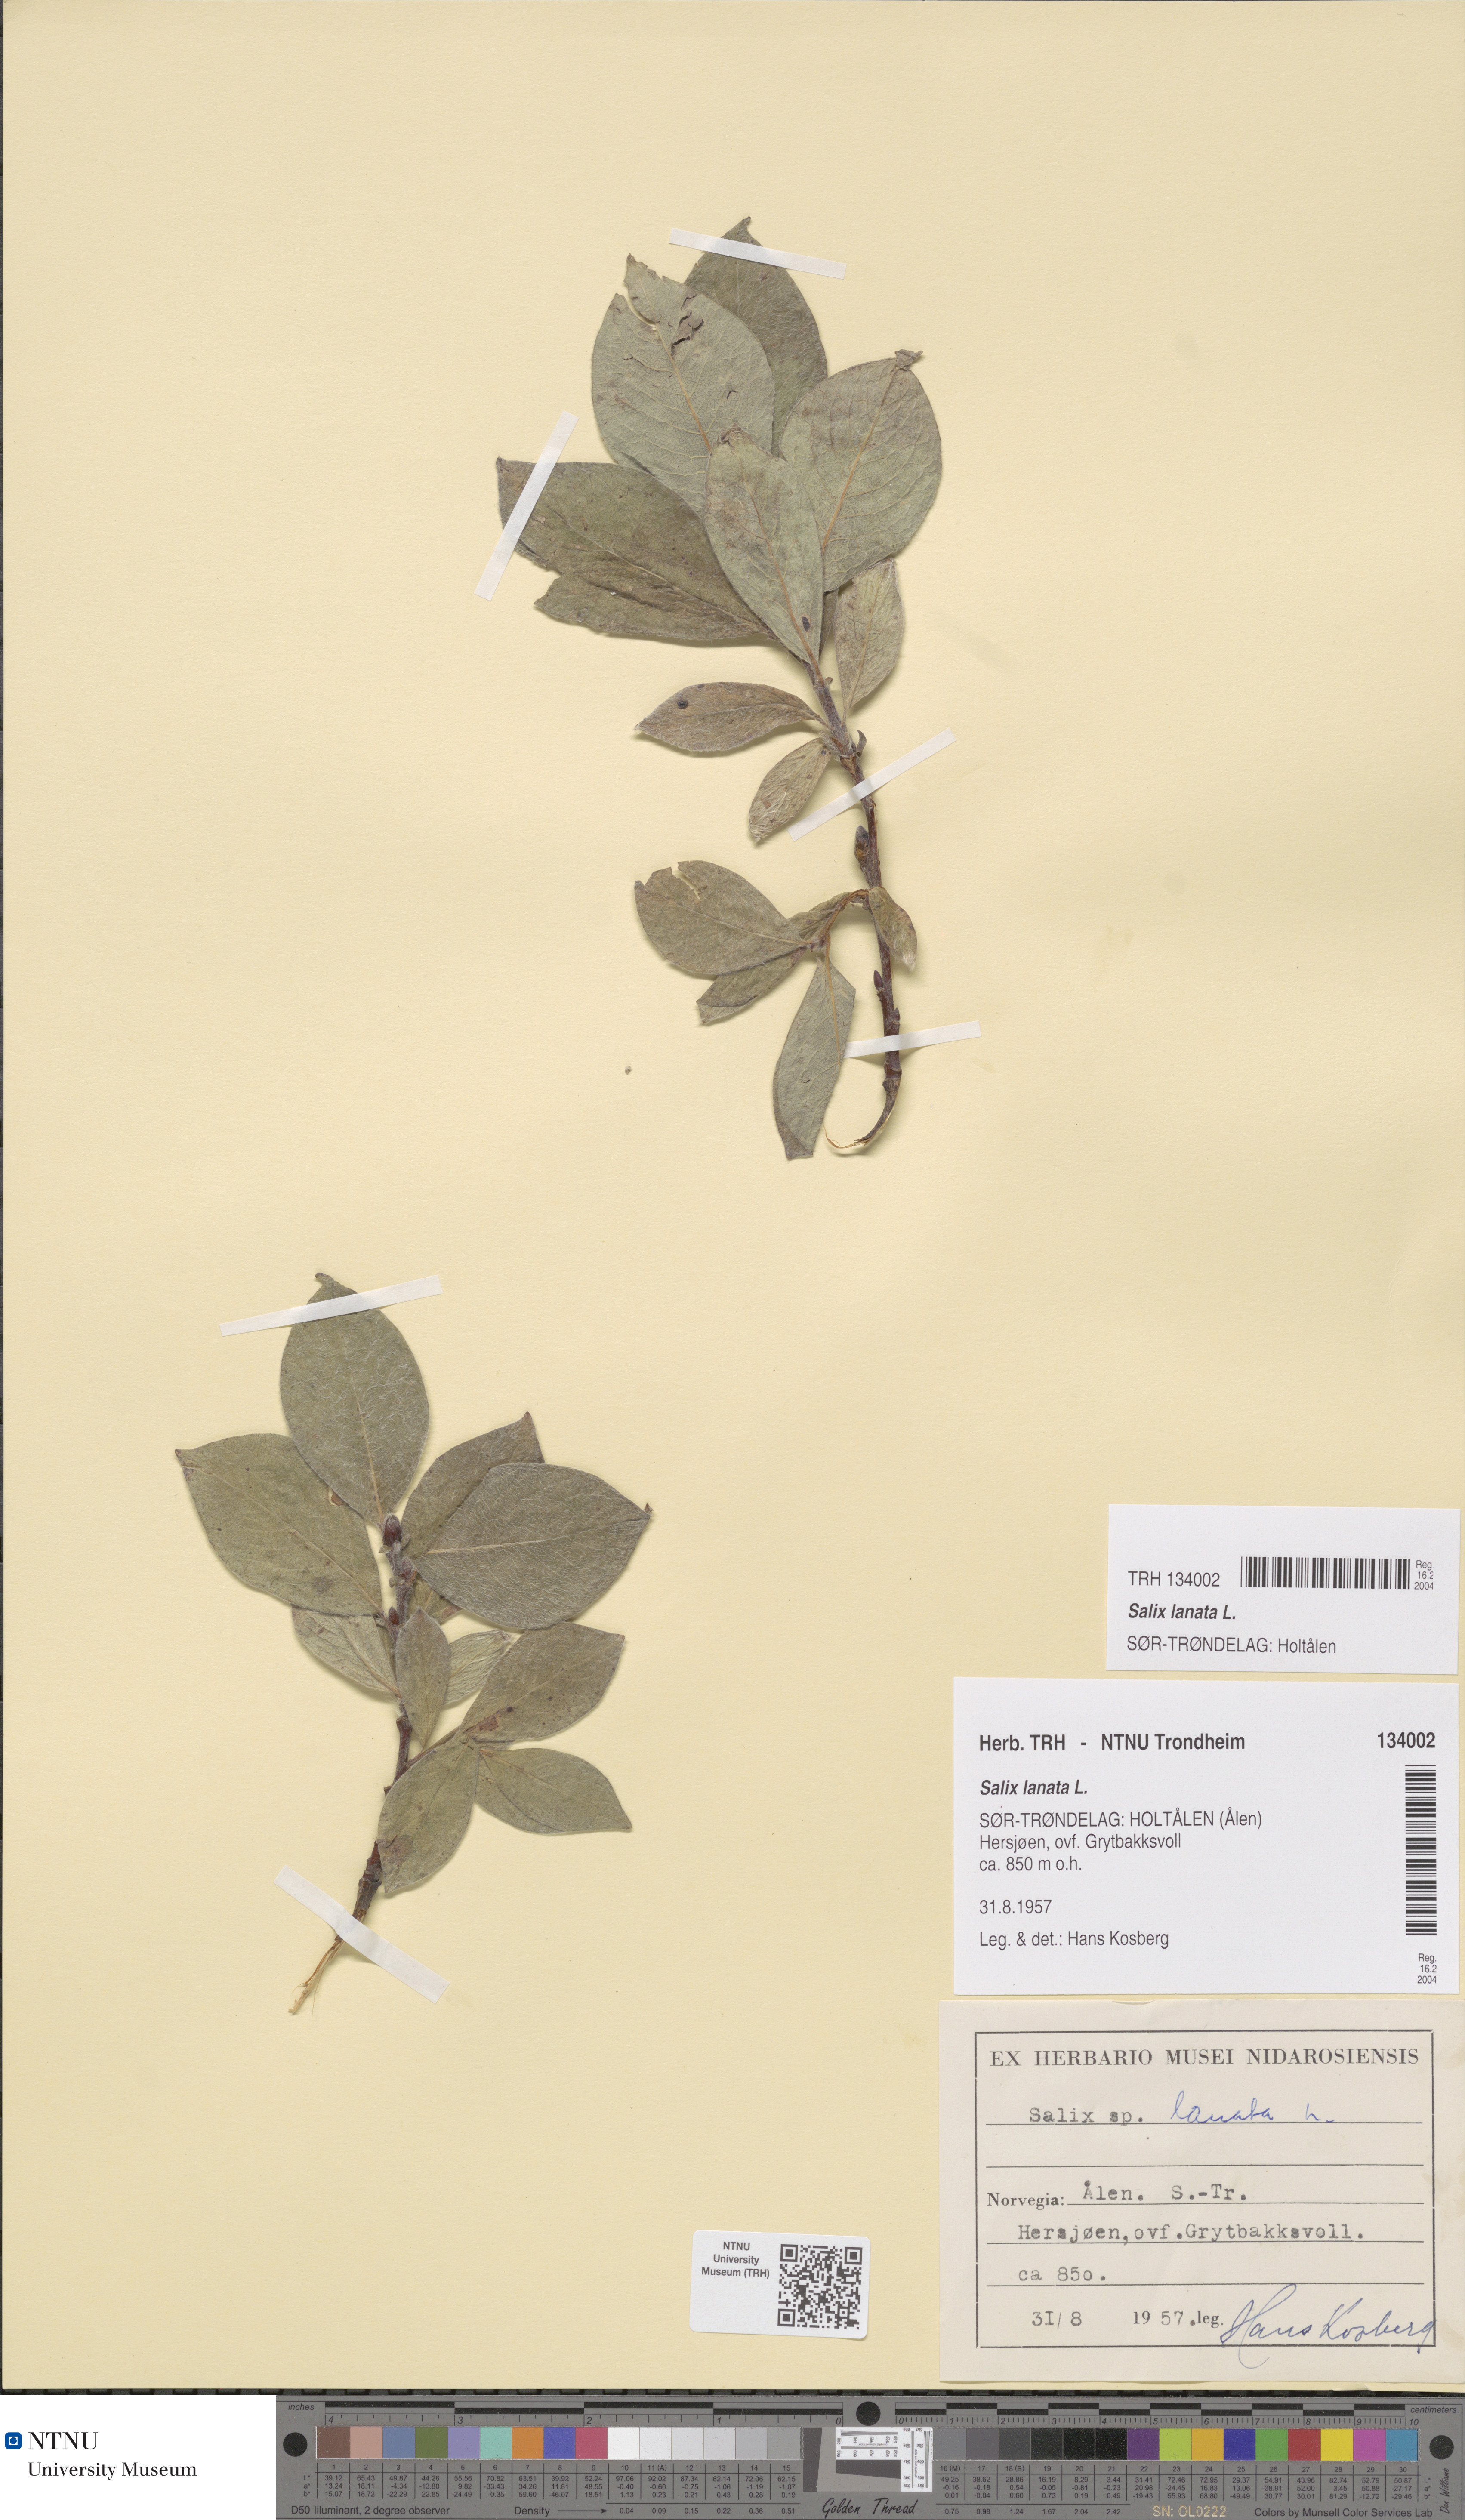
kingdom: Plantae
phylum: Tracheophyta
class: Magnoliopsida
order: Malpighiales
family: Salicaceae
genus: Salix
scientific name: Salix lanata
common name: Woolly willow
